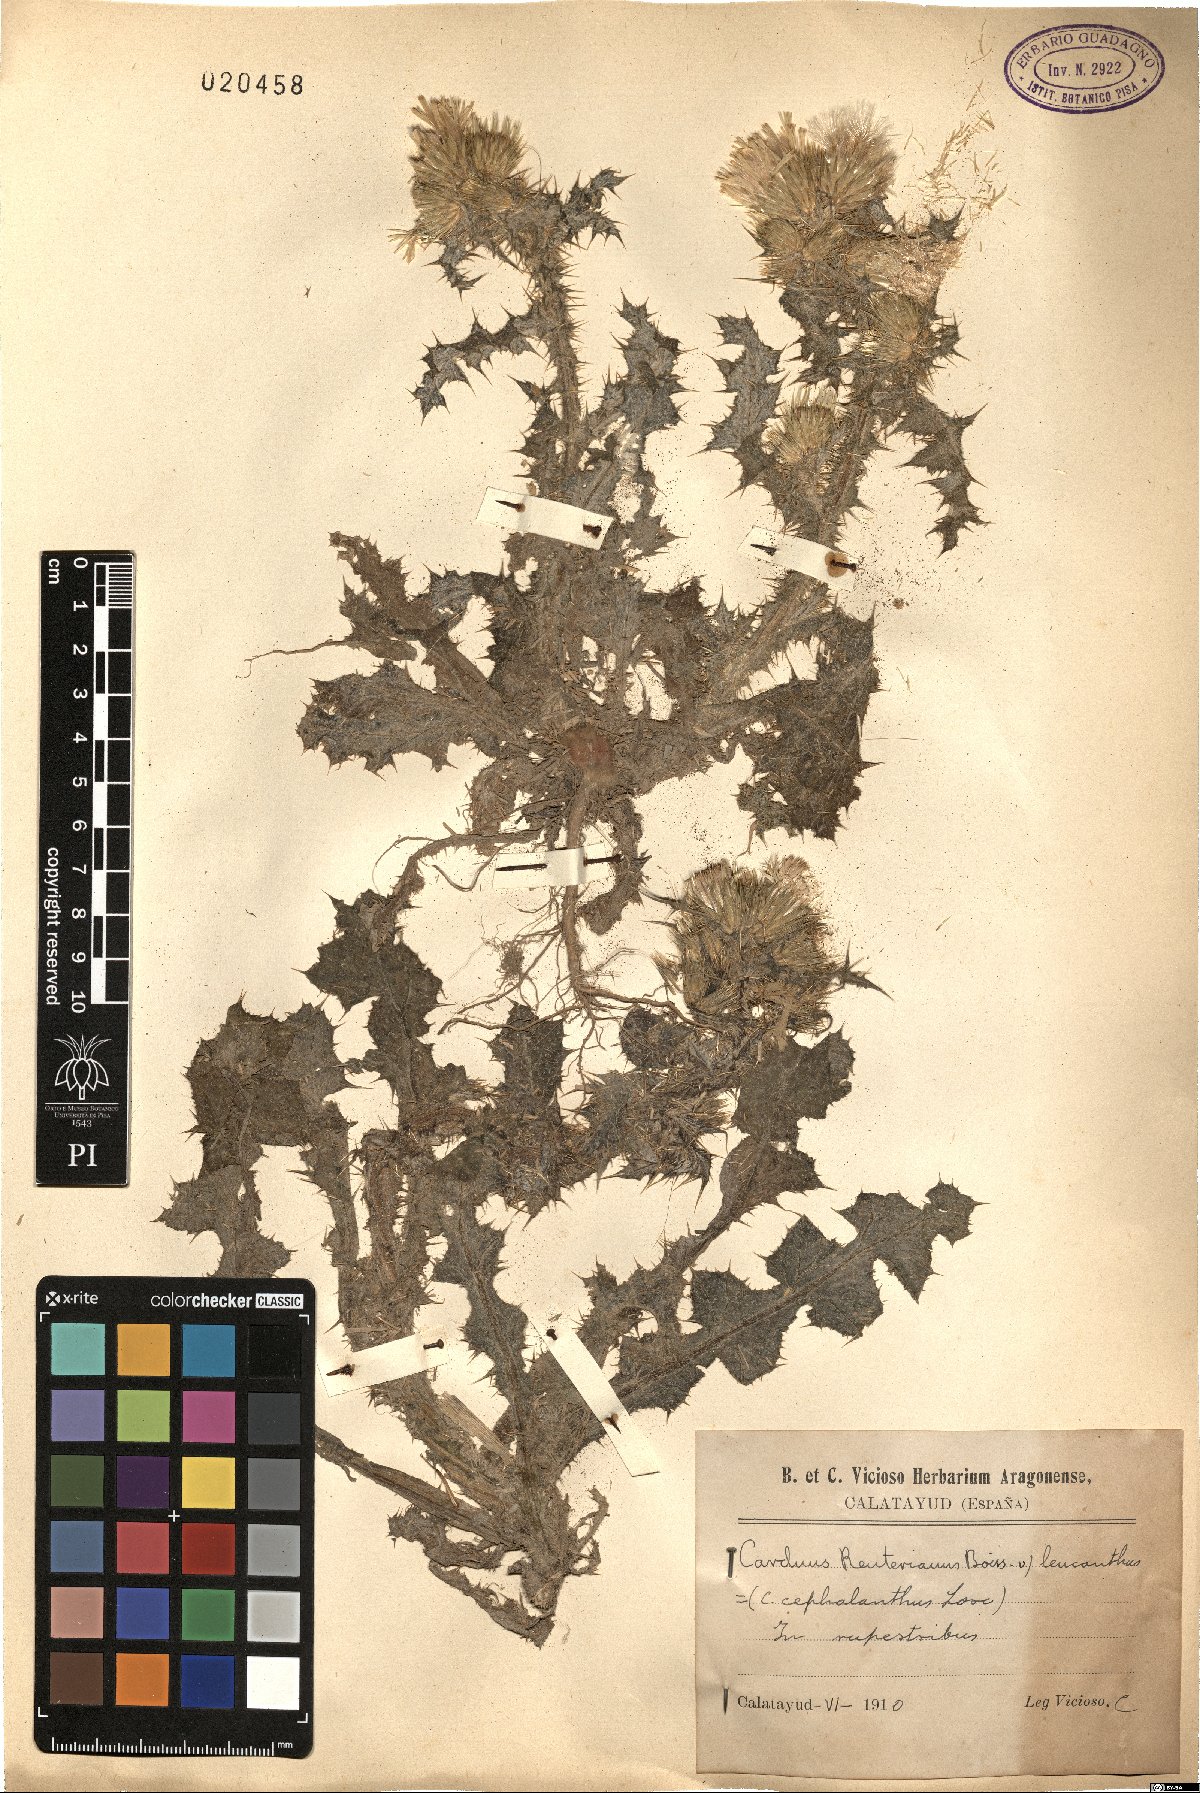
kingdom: Plantae
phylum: Tracheophyta
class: Magnoliopsida
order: Asterales
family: Asteraceae
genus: Carduus
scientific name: Carduus bourgeanus
